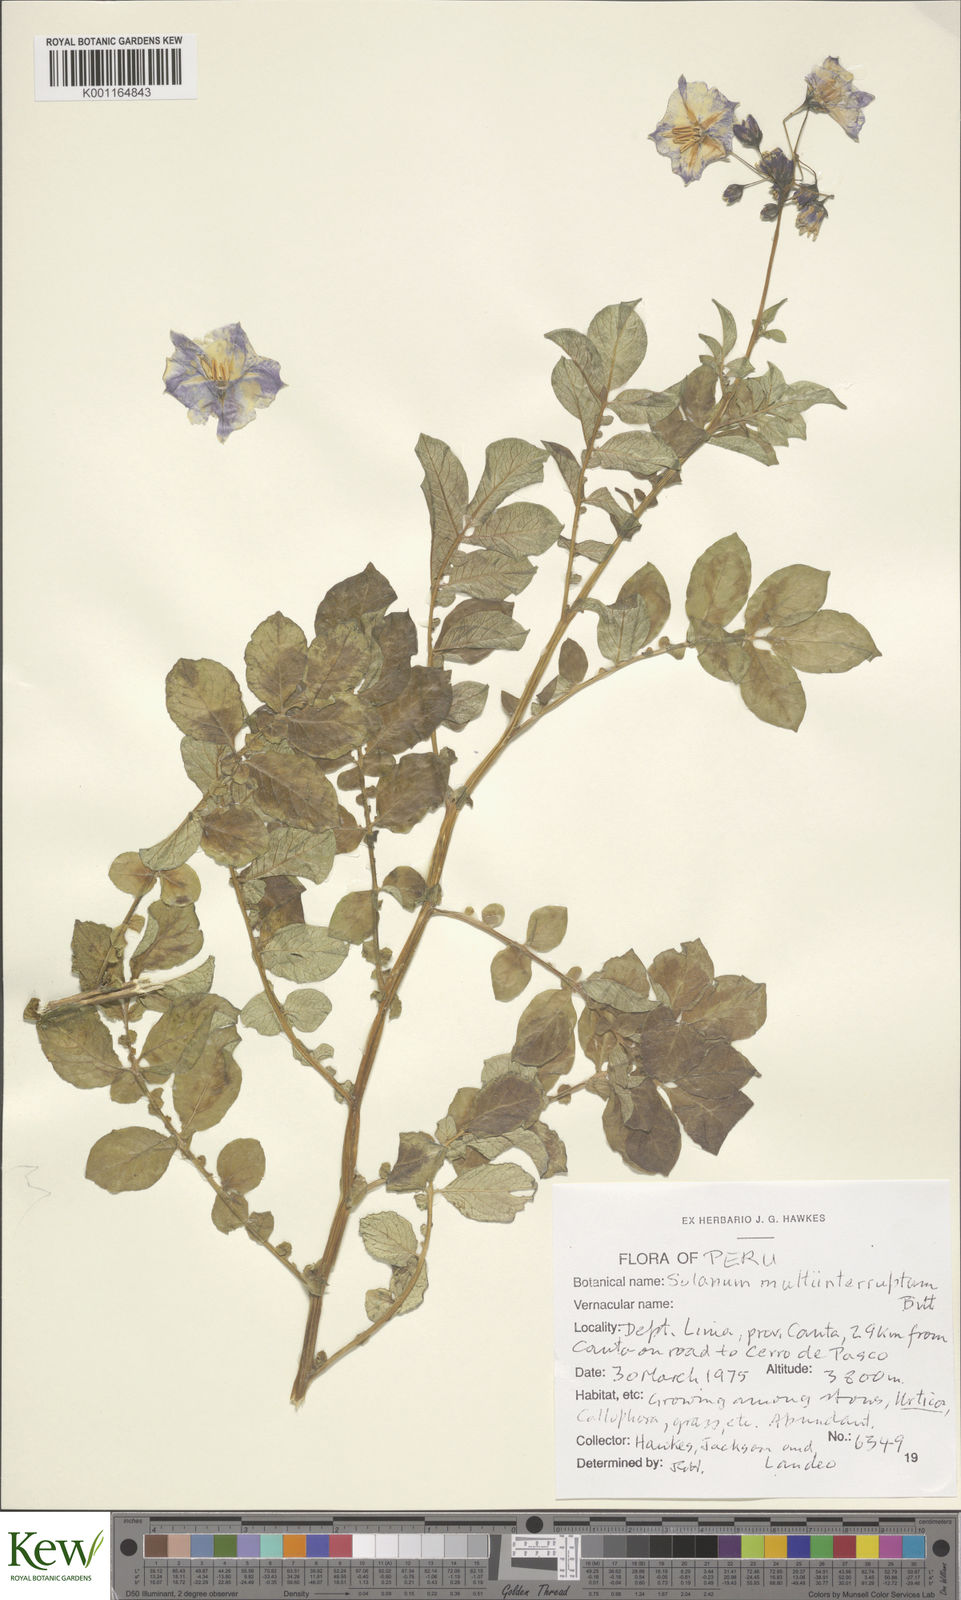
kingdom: Plantae
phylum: Tracheophyta
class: Magnoliopsida
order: Solanales
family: Solanaceae
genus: Solanum
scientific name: Solanum multiinterruptum
